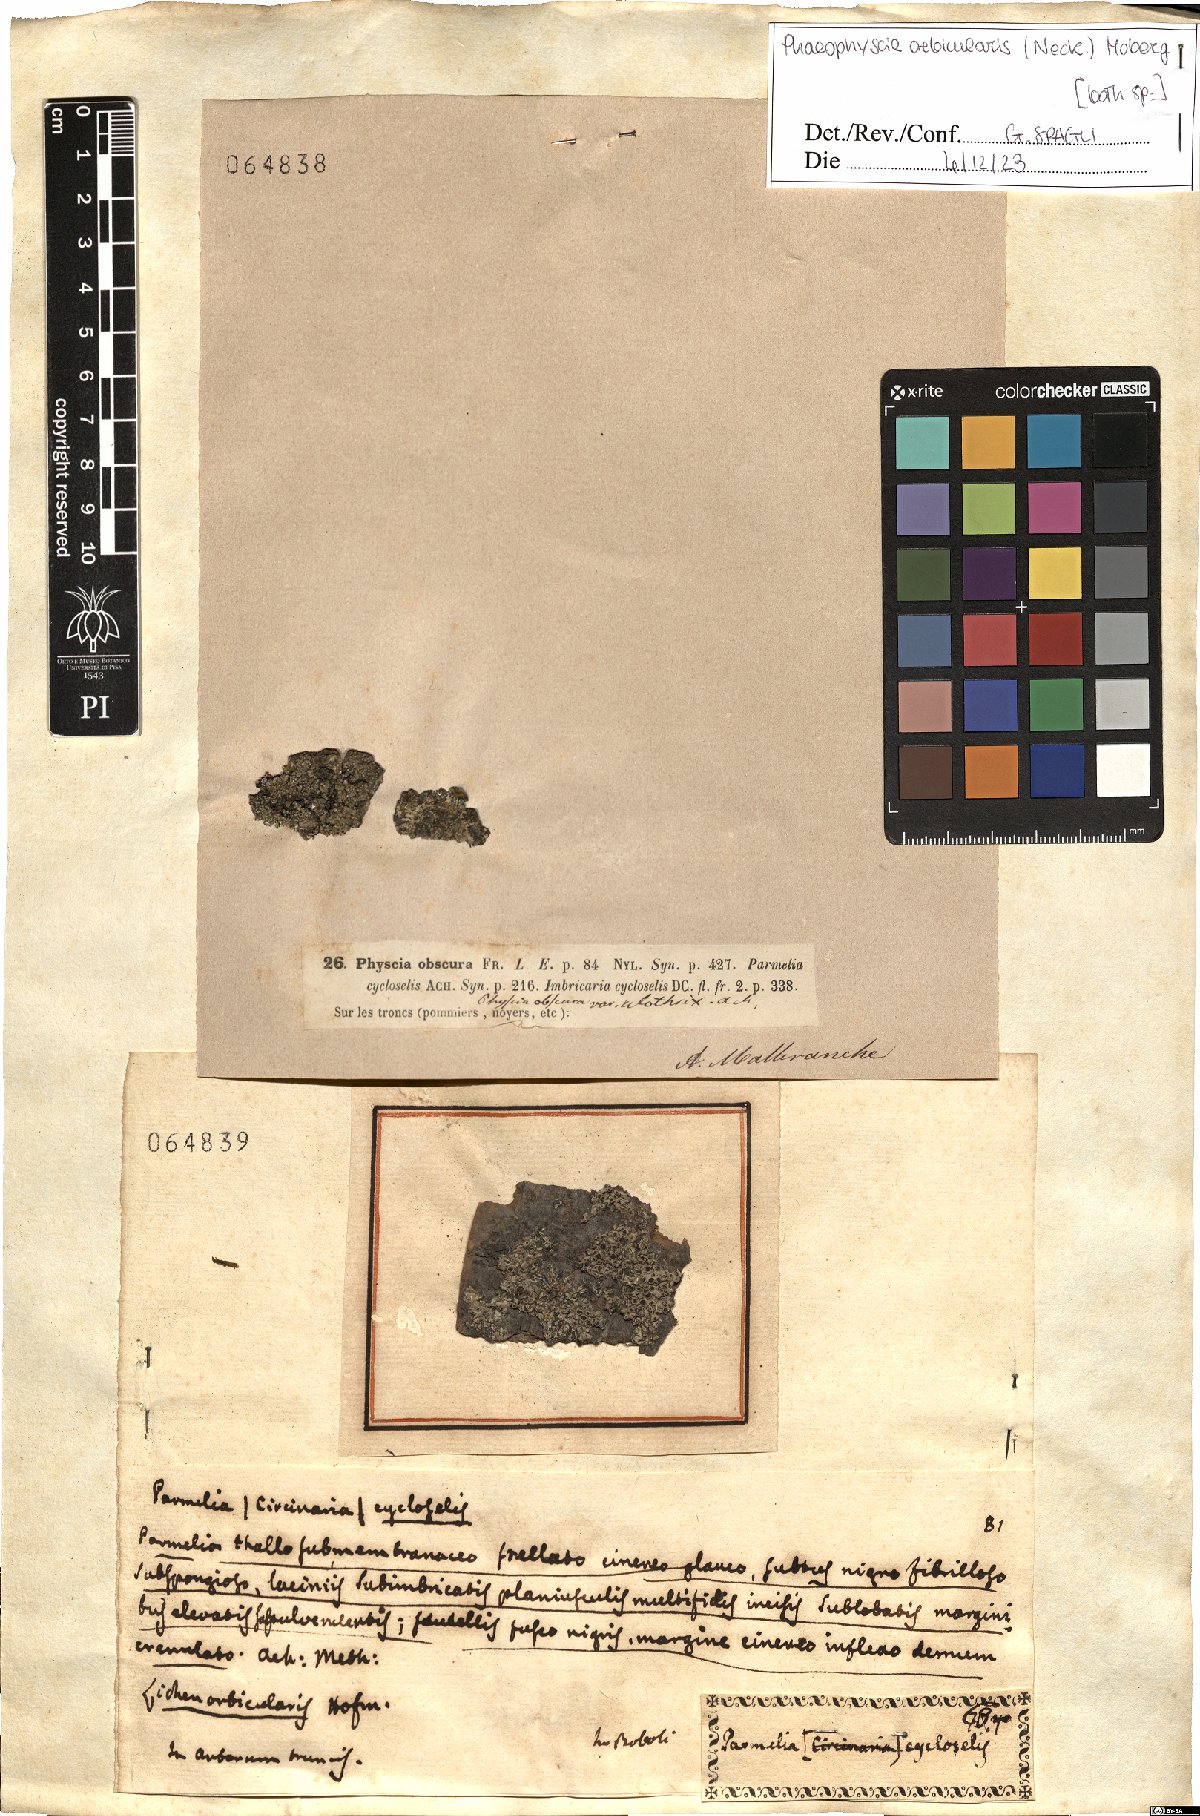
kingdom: Fungi
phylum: Ascomycota
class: Lecanoromycetes
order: Caliciales
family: Physciaceae
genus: Phaeophyscia
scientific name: Phaeophyscia orbicularis
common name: Mealy shadow lichen
